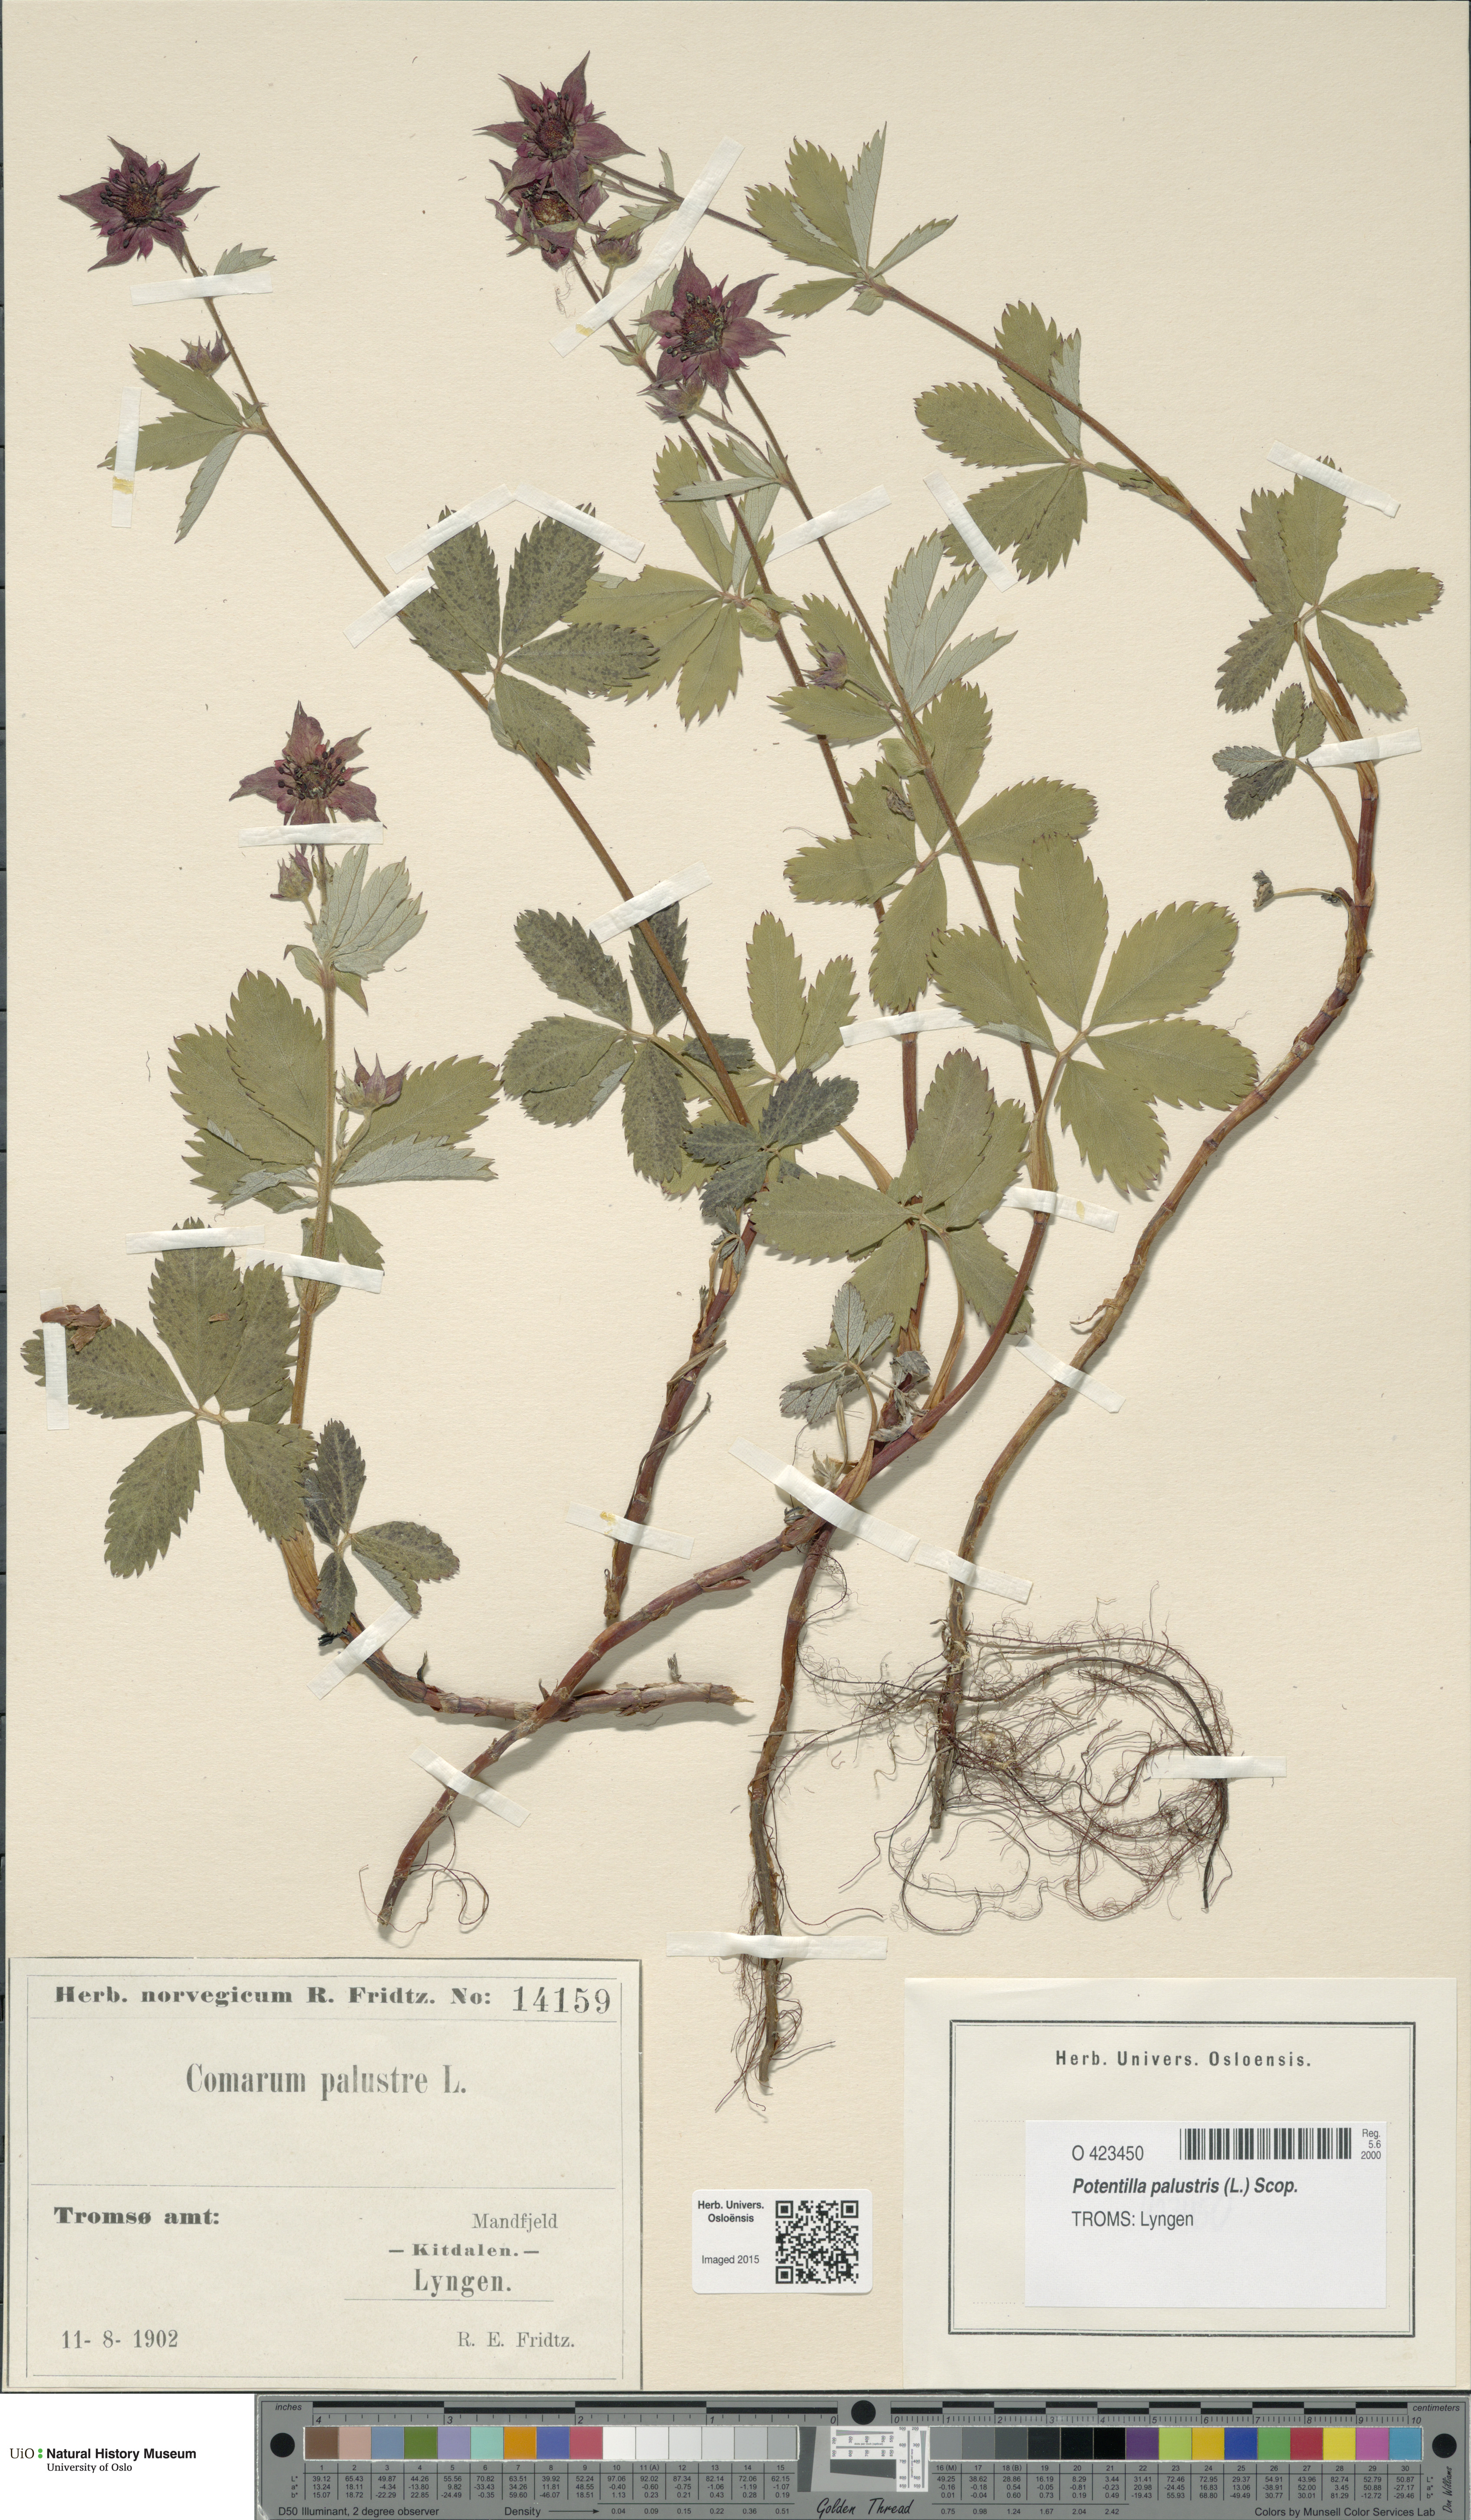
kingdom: Plantae
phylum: Tracheophyta
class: Magnoliopsida
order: Rosales
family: Rosaceae
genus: Comarum
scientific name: Comarum palustre
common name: Marsh cinquefoil
